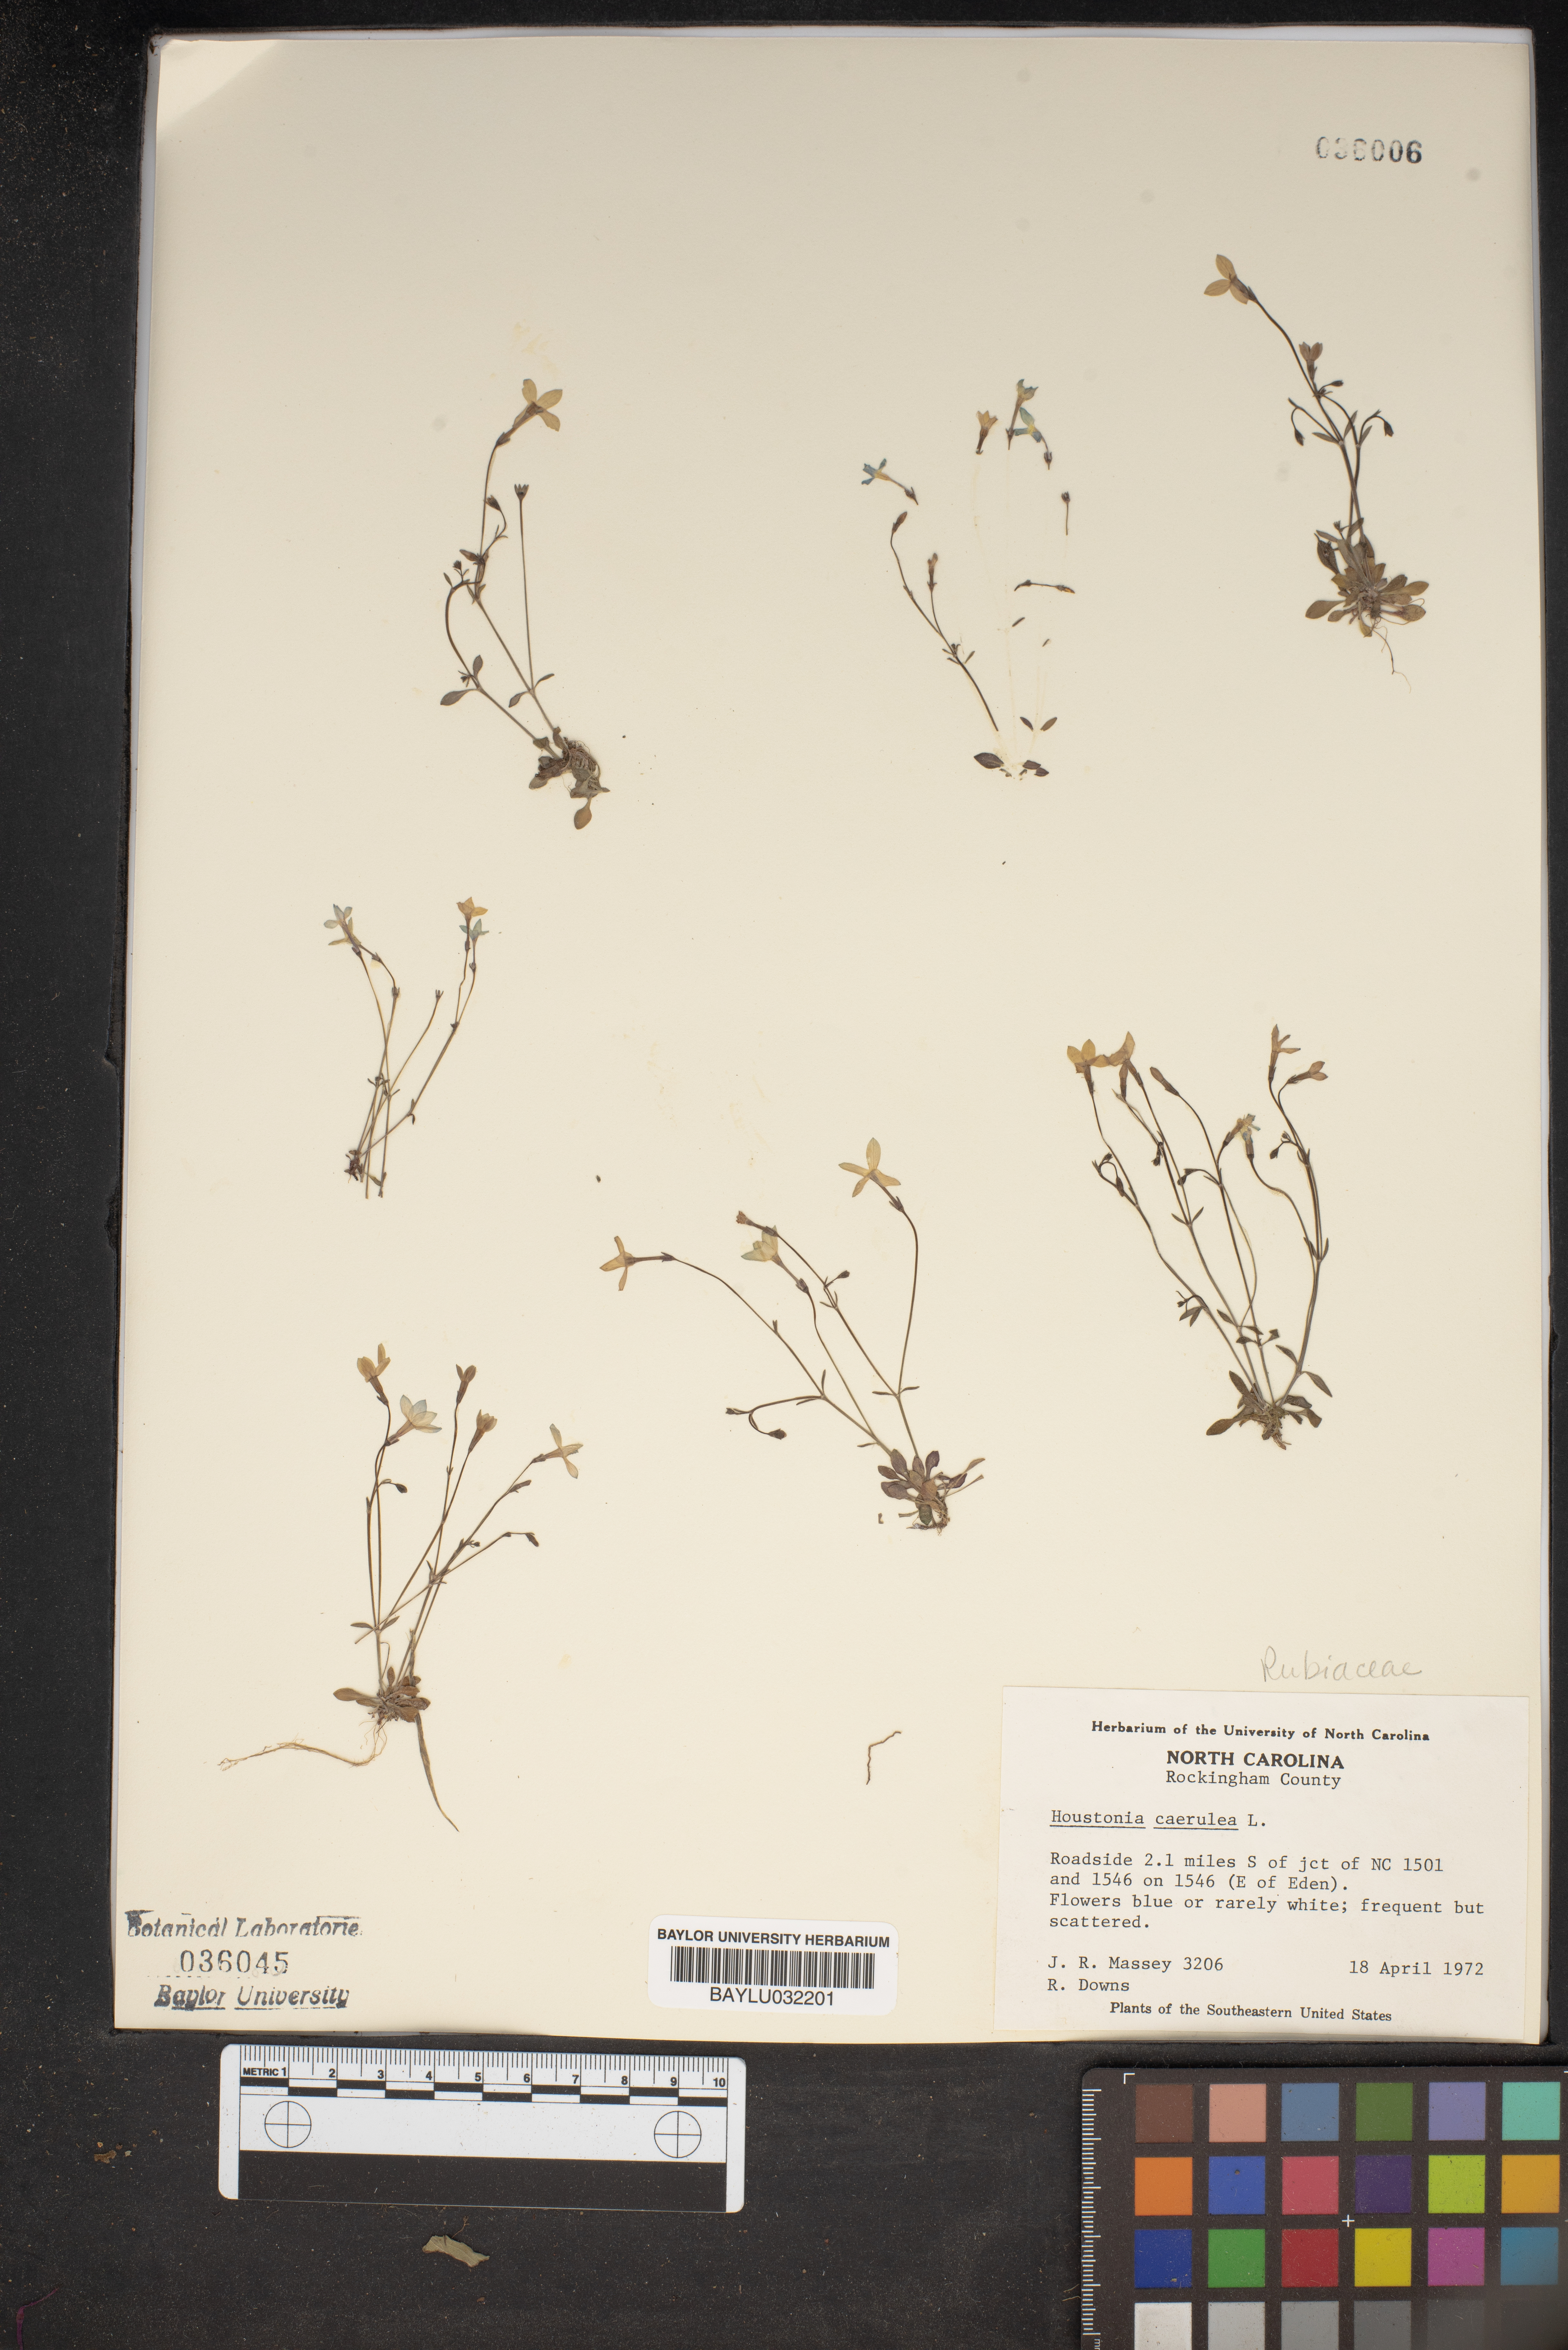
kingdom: Plantae
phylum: Tracheophyta
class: Magnoliopsida
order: Gentianales
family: Rubiaceae
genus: Houstonia
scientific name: Houstonia caerulea
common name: Bluets
